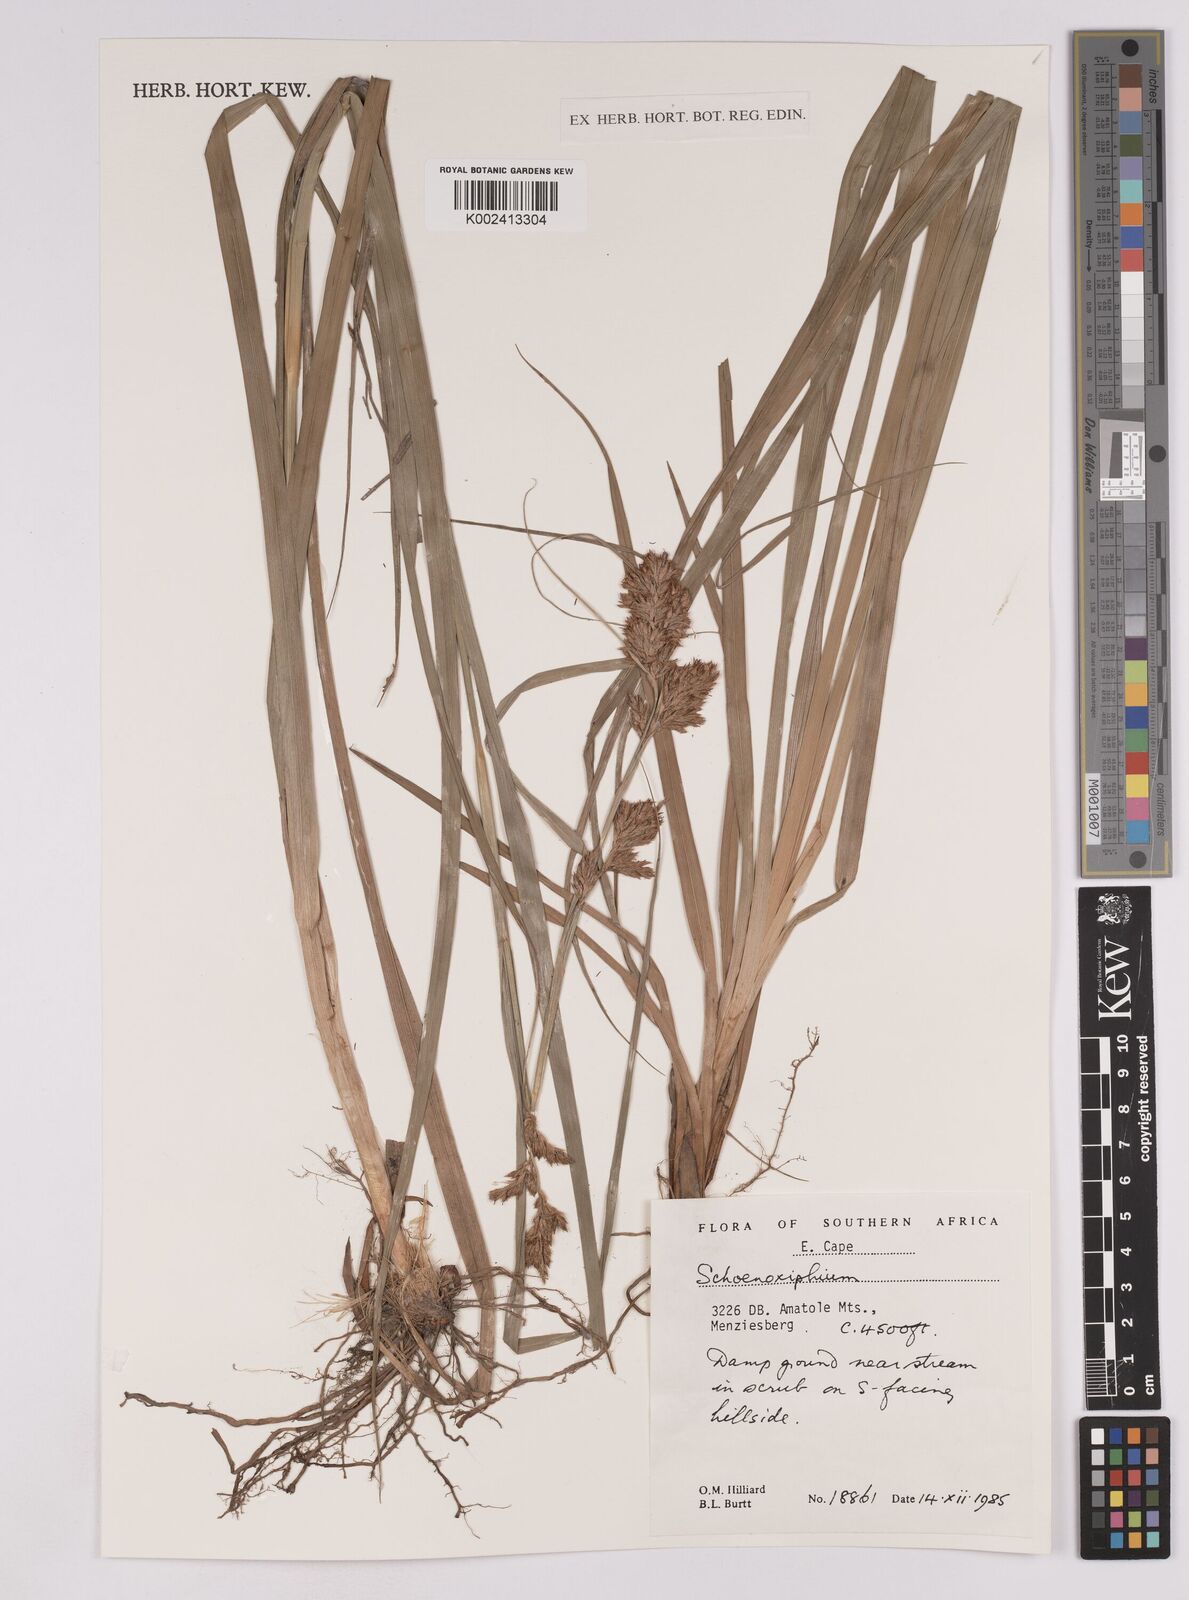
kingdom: Plantae
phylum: Tracheophyta
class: Liliopsida
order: Poales
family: Cyperaceae
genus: Carex
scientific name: Carex
